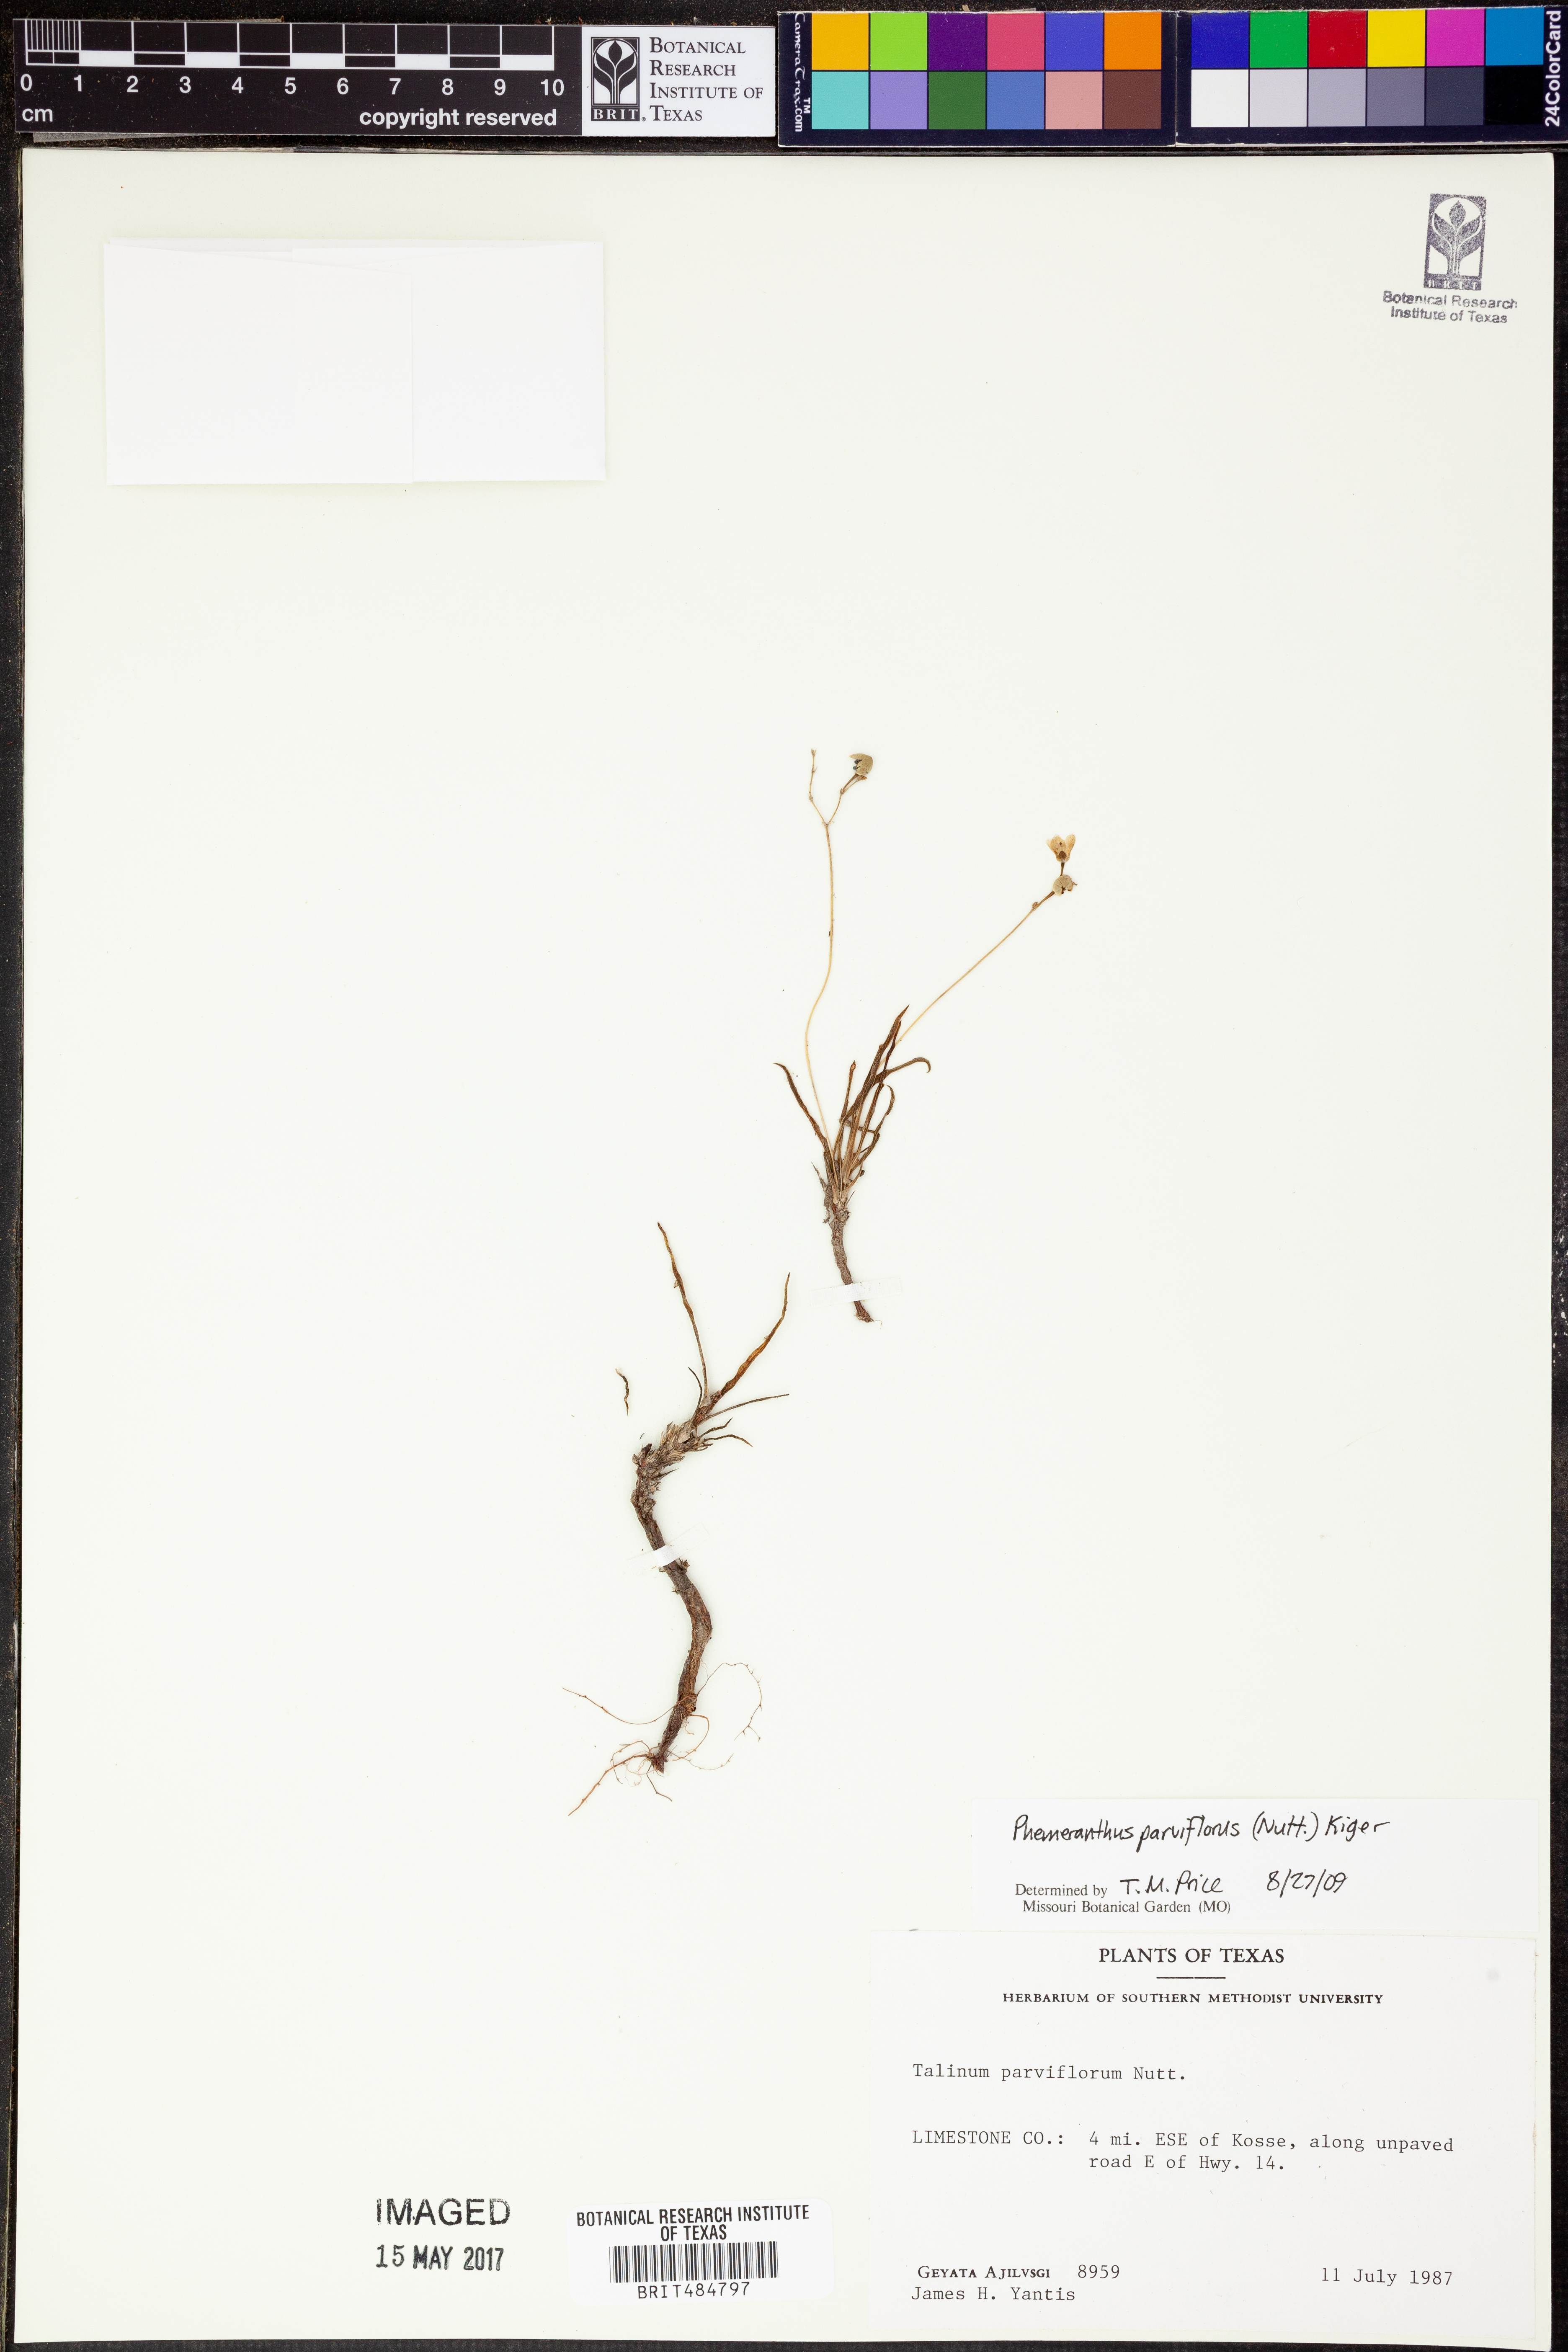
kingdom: Plantae
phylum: Tracheophyta
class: Magnoliopsida
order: Caryophyllales
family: Montiaceae
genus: Phemeranthus
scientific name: Phemeranthus parviflorus
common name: Sunbright
